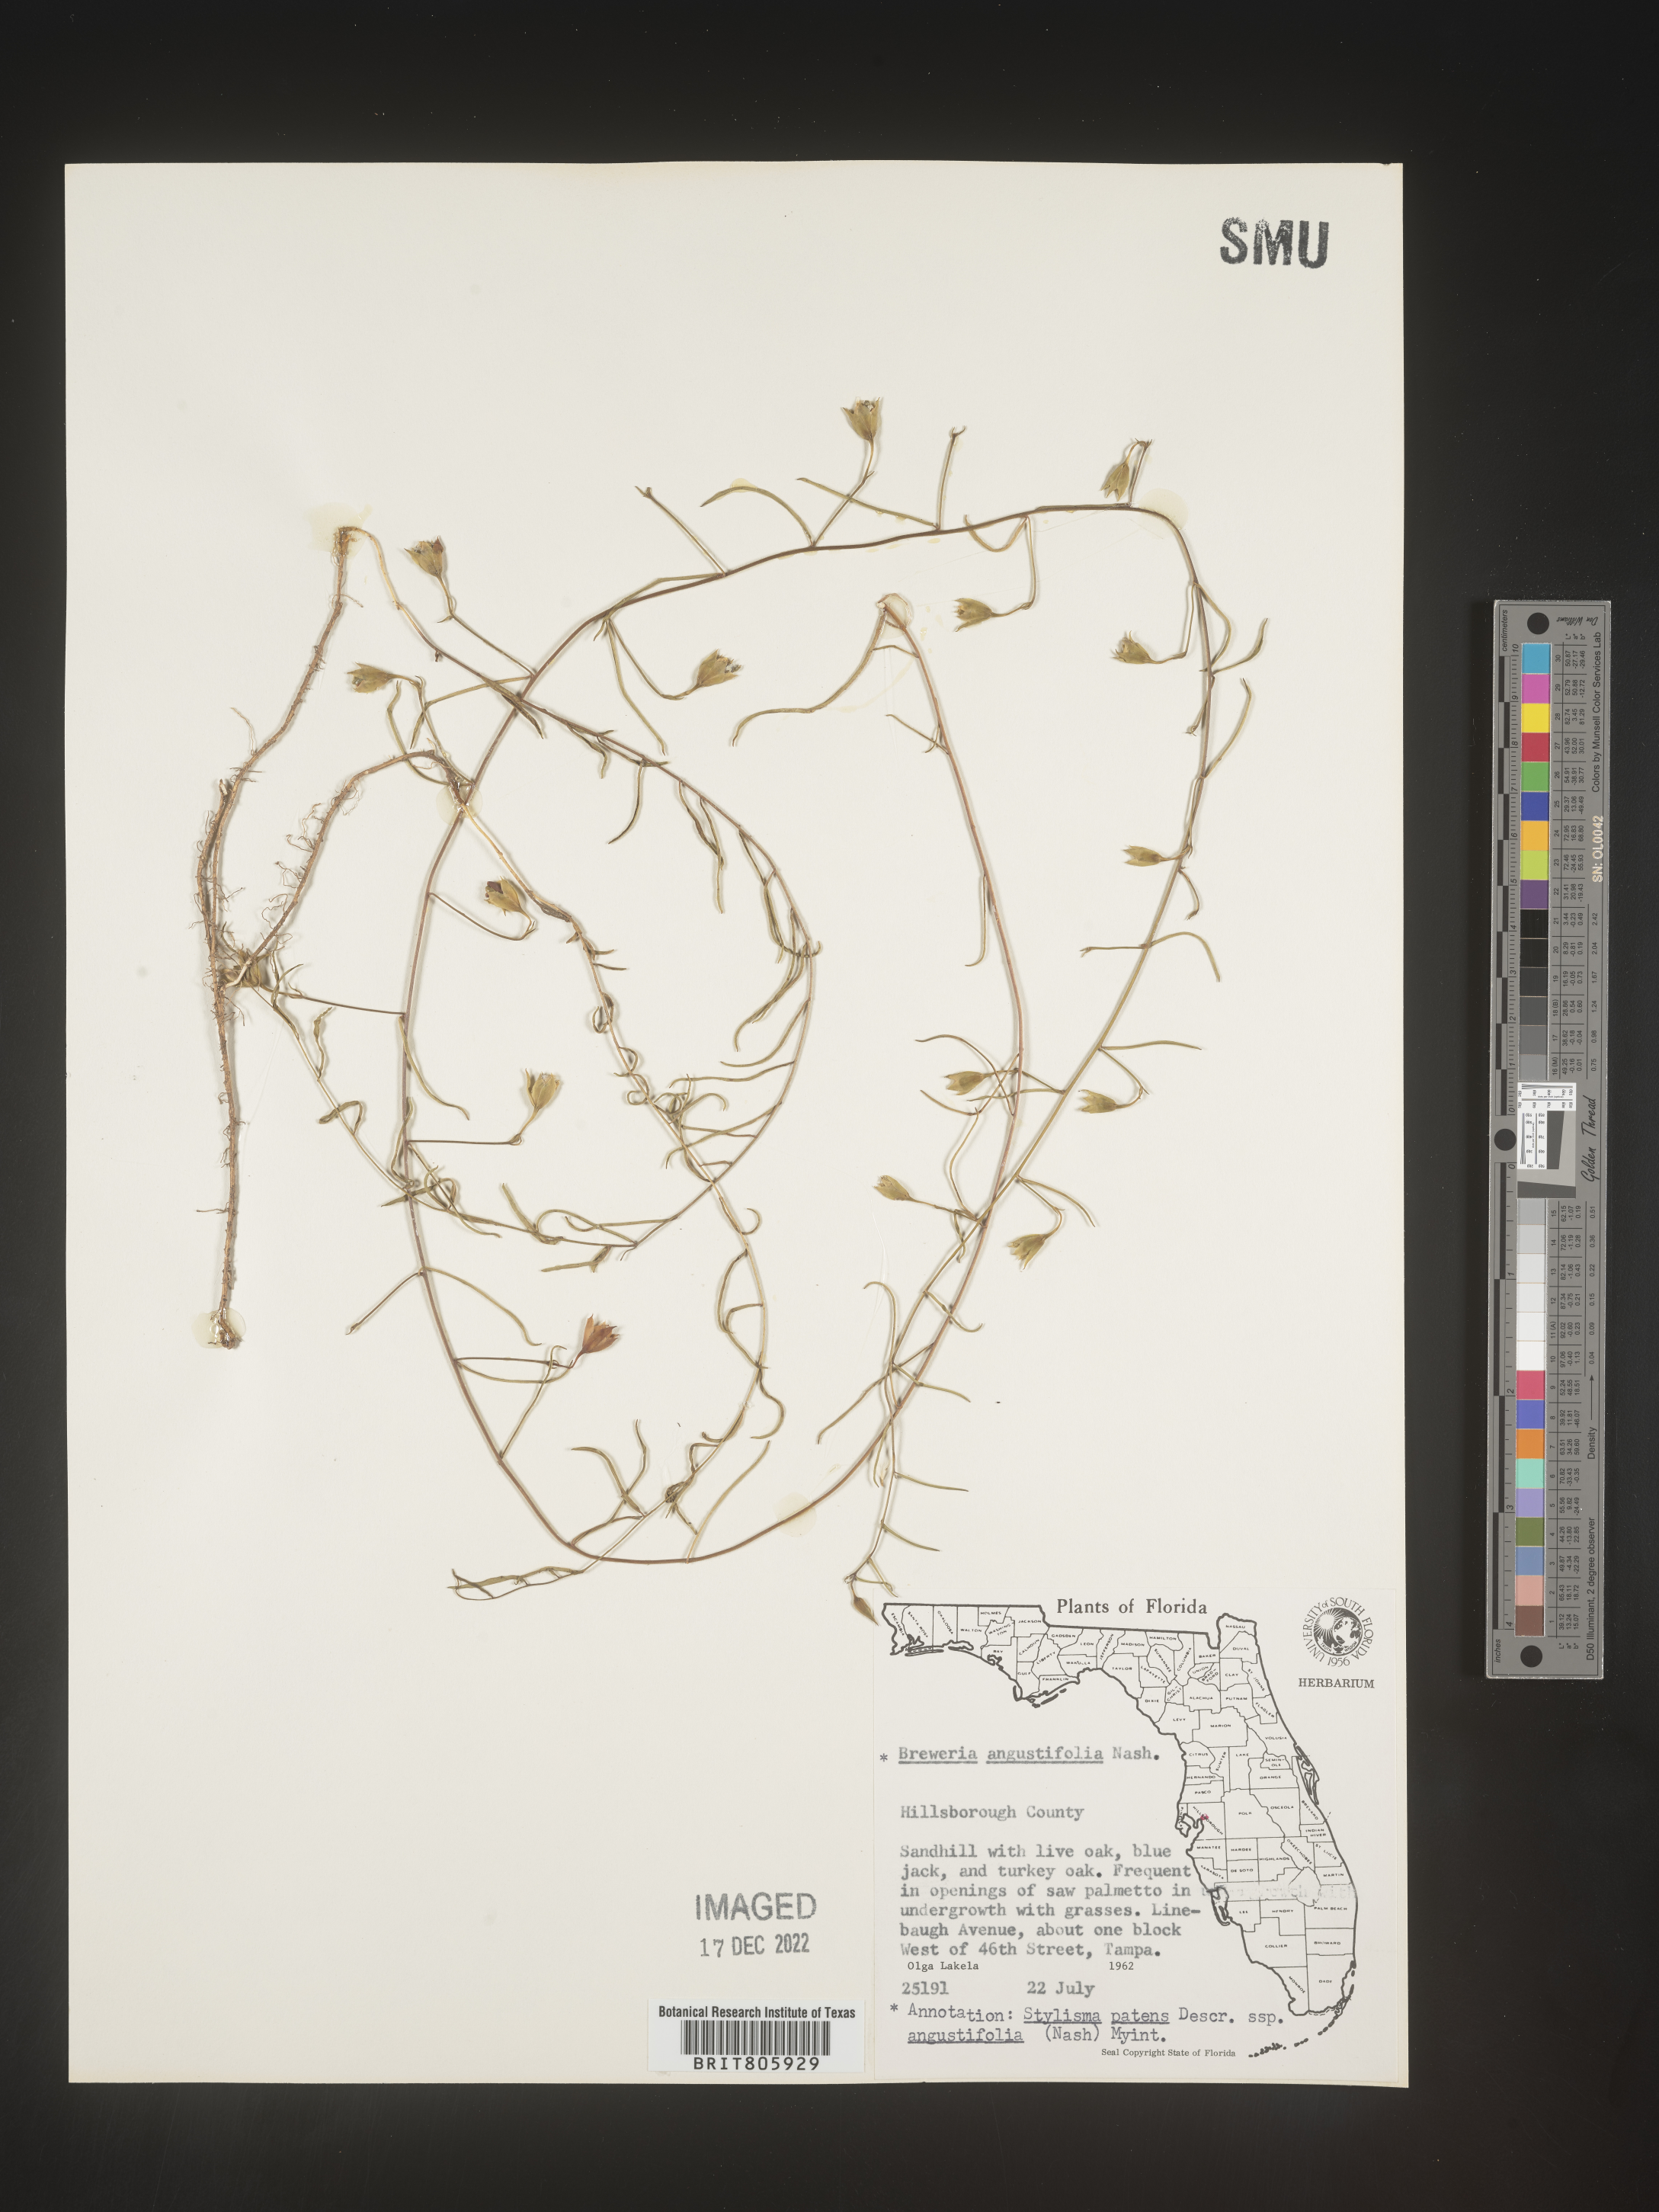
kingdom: Plantae
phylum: Tracheophyta
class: Magnoliopsida
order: Solanales
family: Convolvulaceae
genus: Stylisma
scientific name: Stylisma
